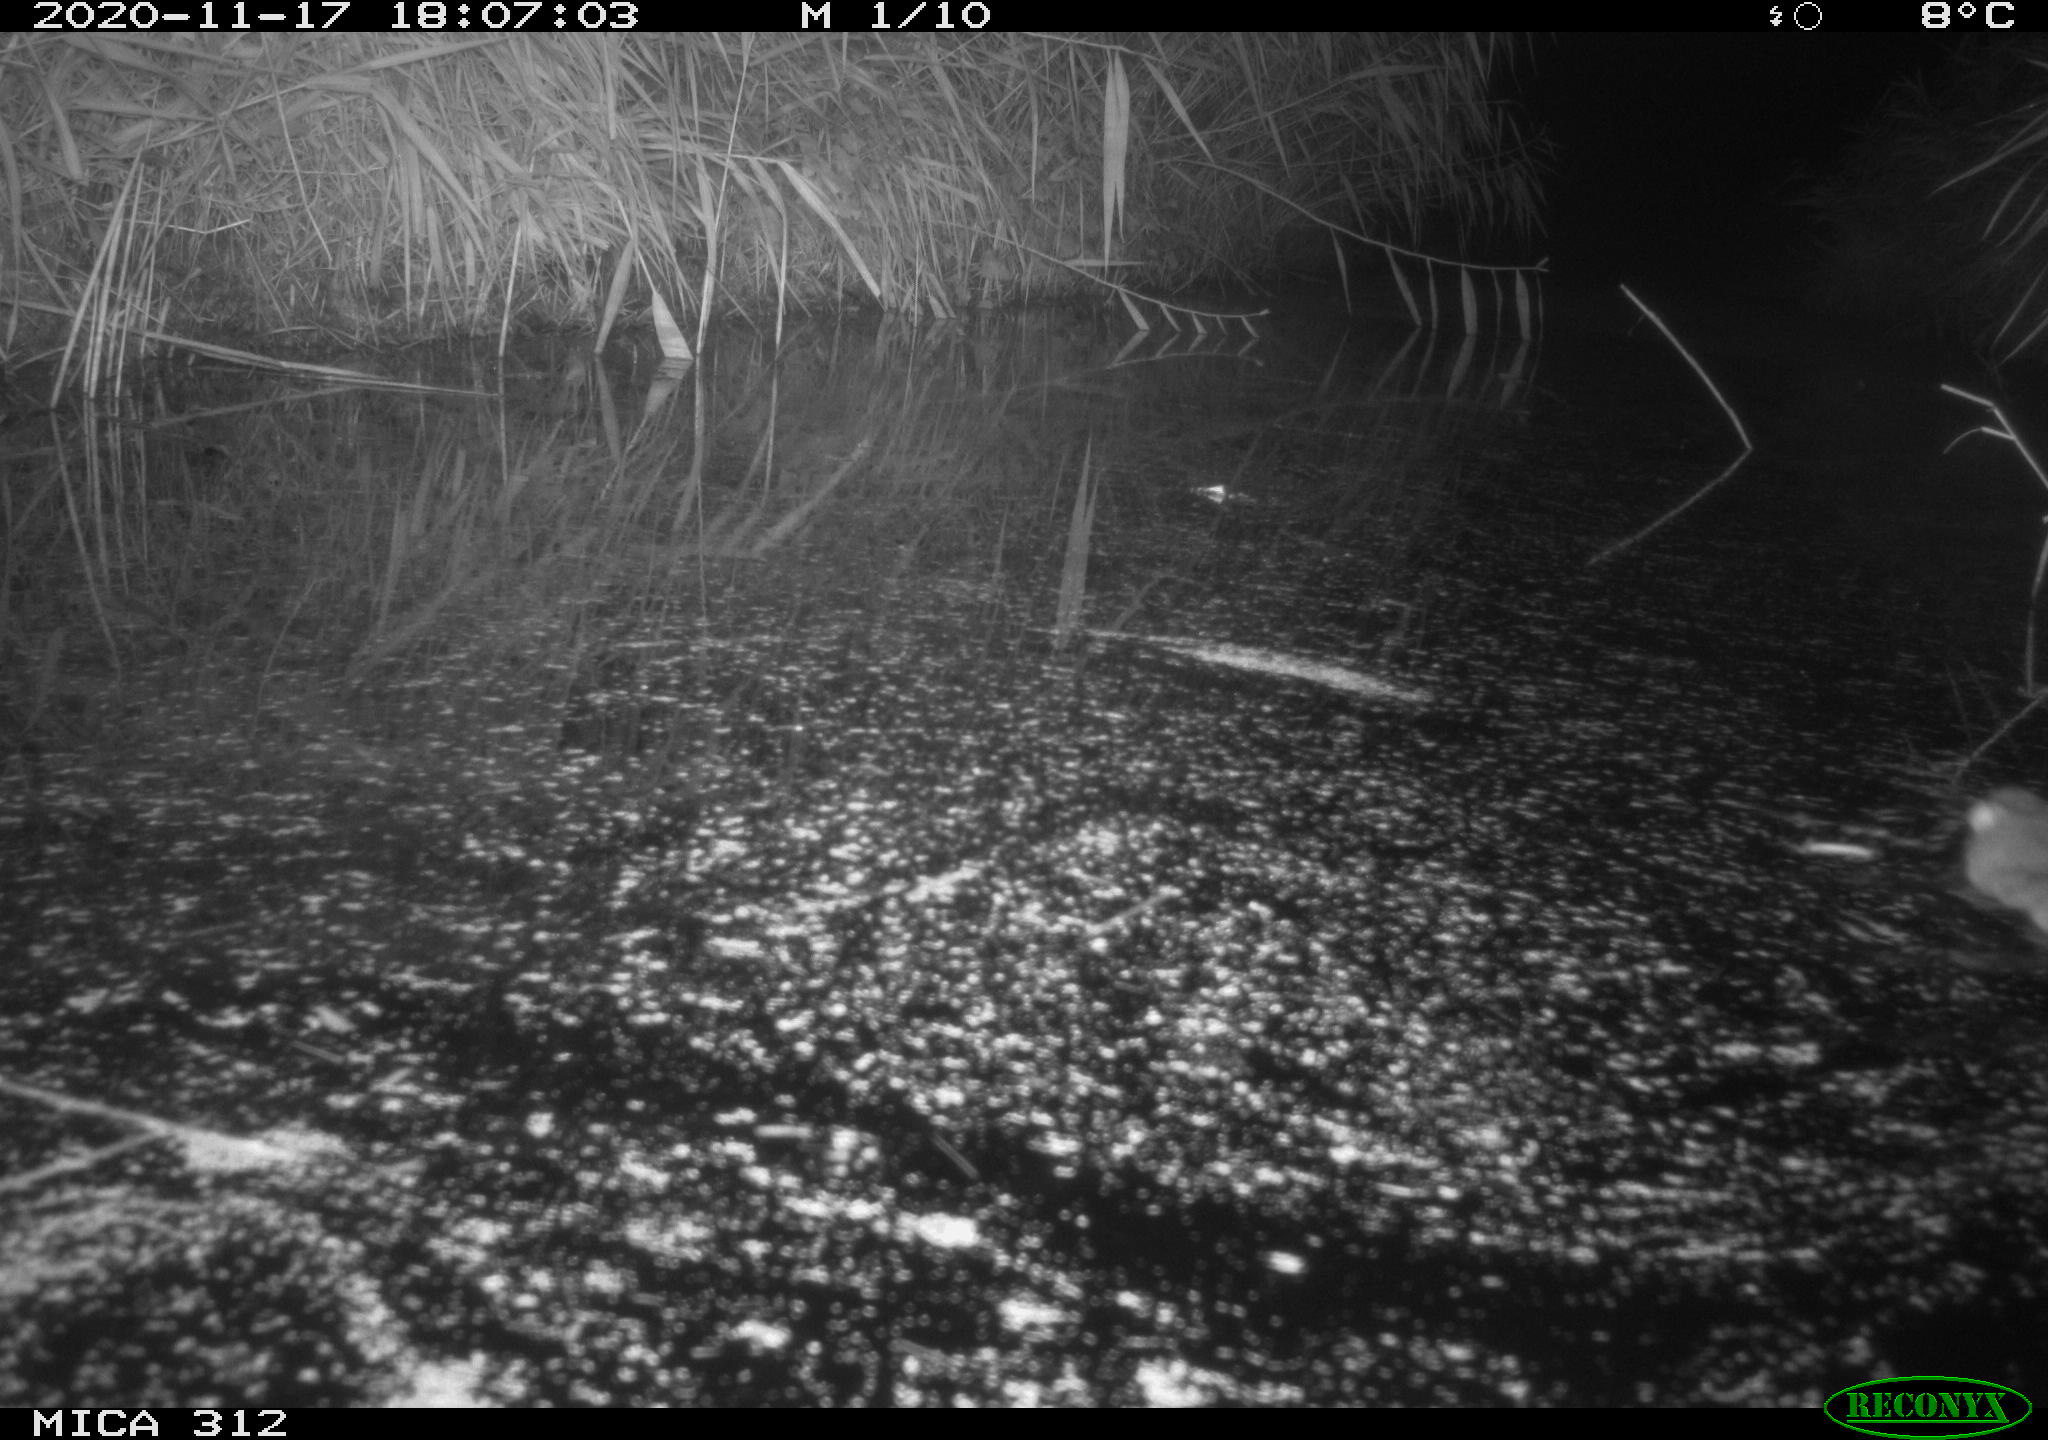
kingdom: Animalia
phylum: Chordata
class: Mammalia
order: Rodentia
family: Muridae
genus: Rattus
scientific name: Rattus norvegicus
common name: Brown rat
